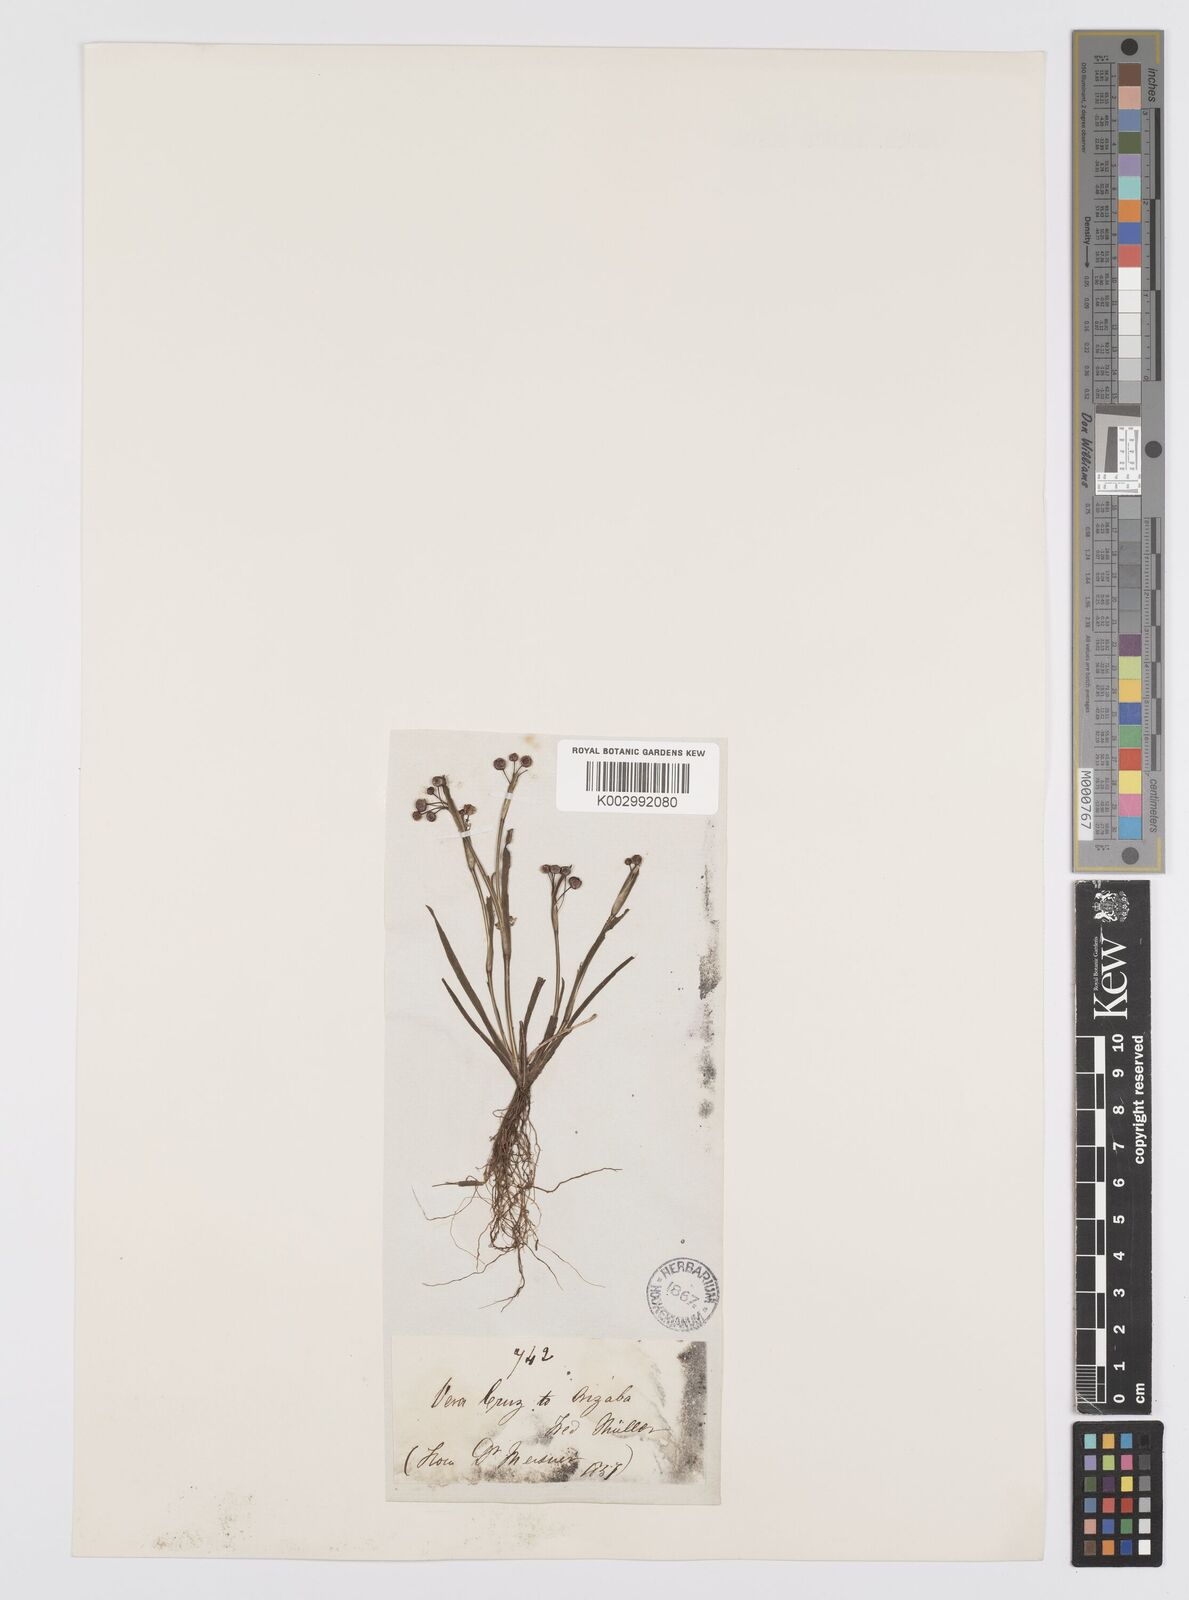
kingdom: Plantae
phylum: Tracheophyta
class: Liliopsida
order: Asparagales
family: Iridaceae
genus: Sisyrinchium
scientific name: Sisyrinchium bermudiana
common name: Blue-eyed-grass
